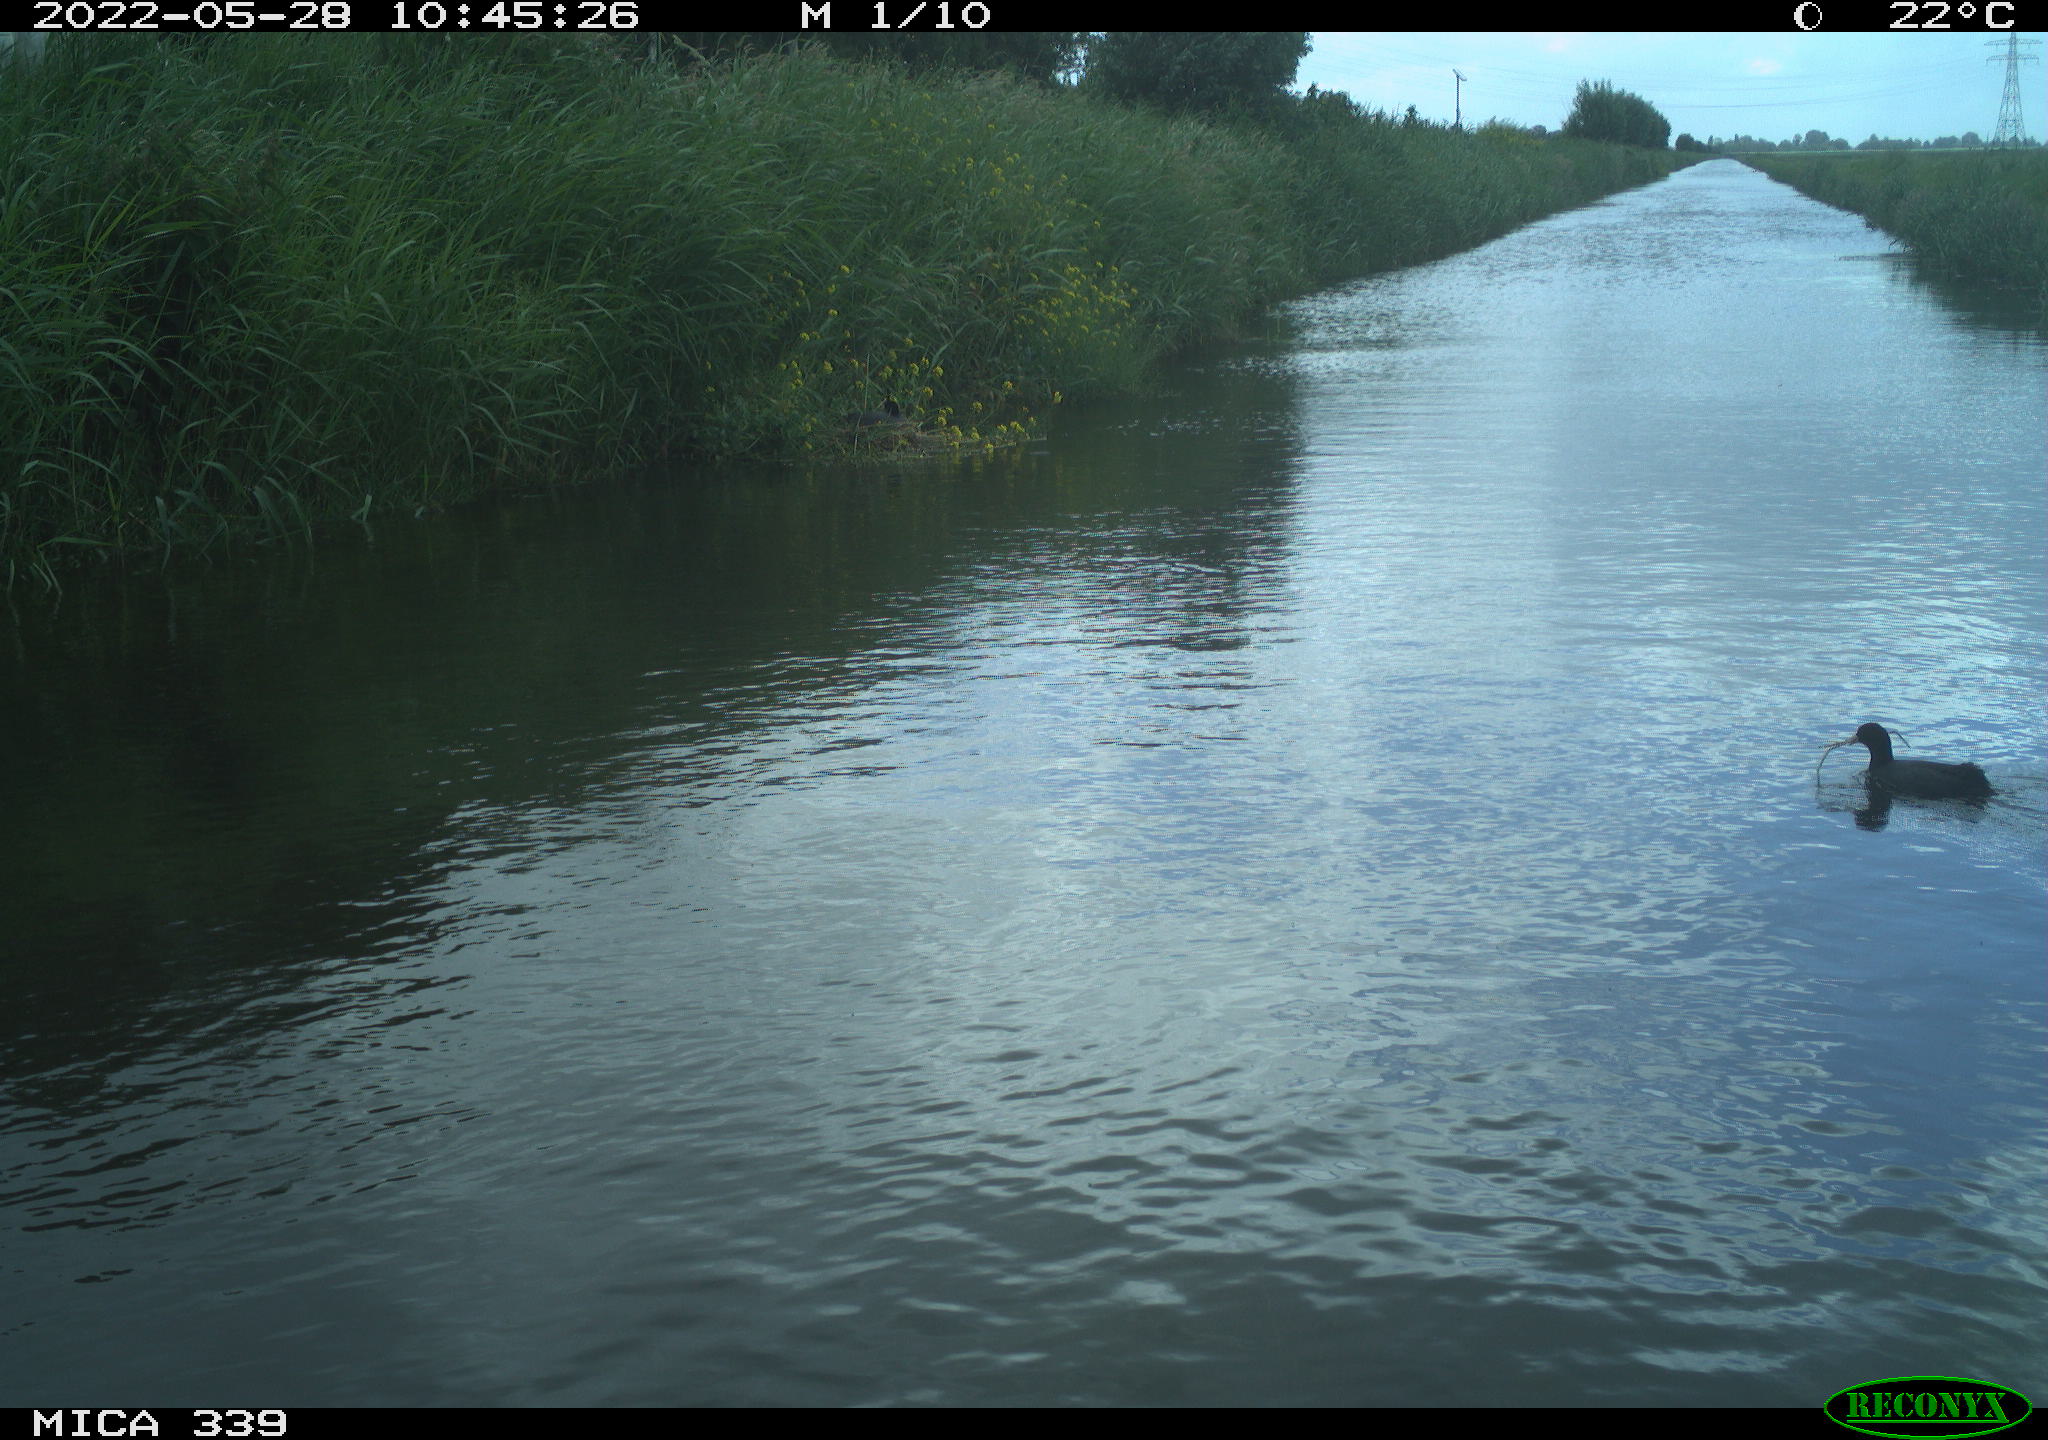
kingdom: Animalia
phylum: Chordata
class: Aves
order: Gruiformes
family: Rallidae
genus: Fulica
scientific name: Fulica atra
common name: Eurasian coot
